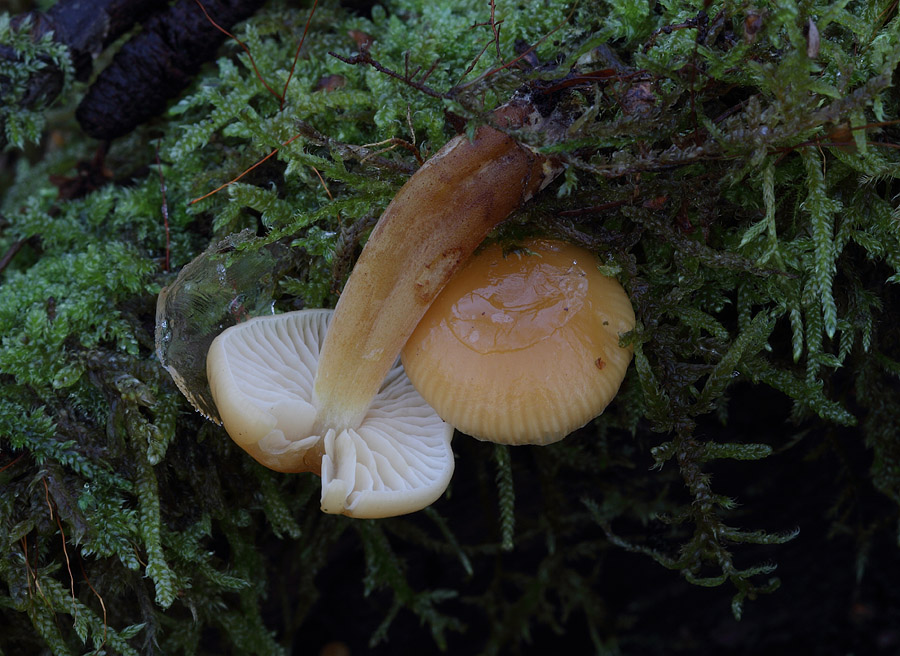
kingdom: Fungi
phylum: Basidiomycota
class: Agaricomycetes
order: Agaricales
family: Physalacriaceae
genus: Flammulina
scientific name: Flammulina velutipes
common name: gul fløjlsfod
